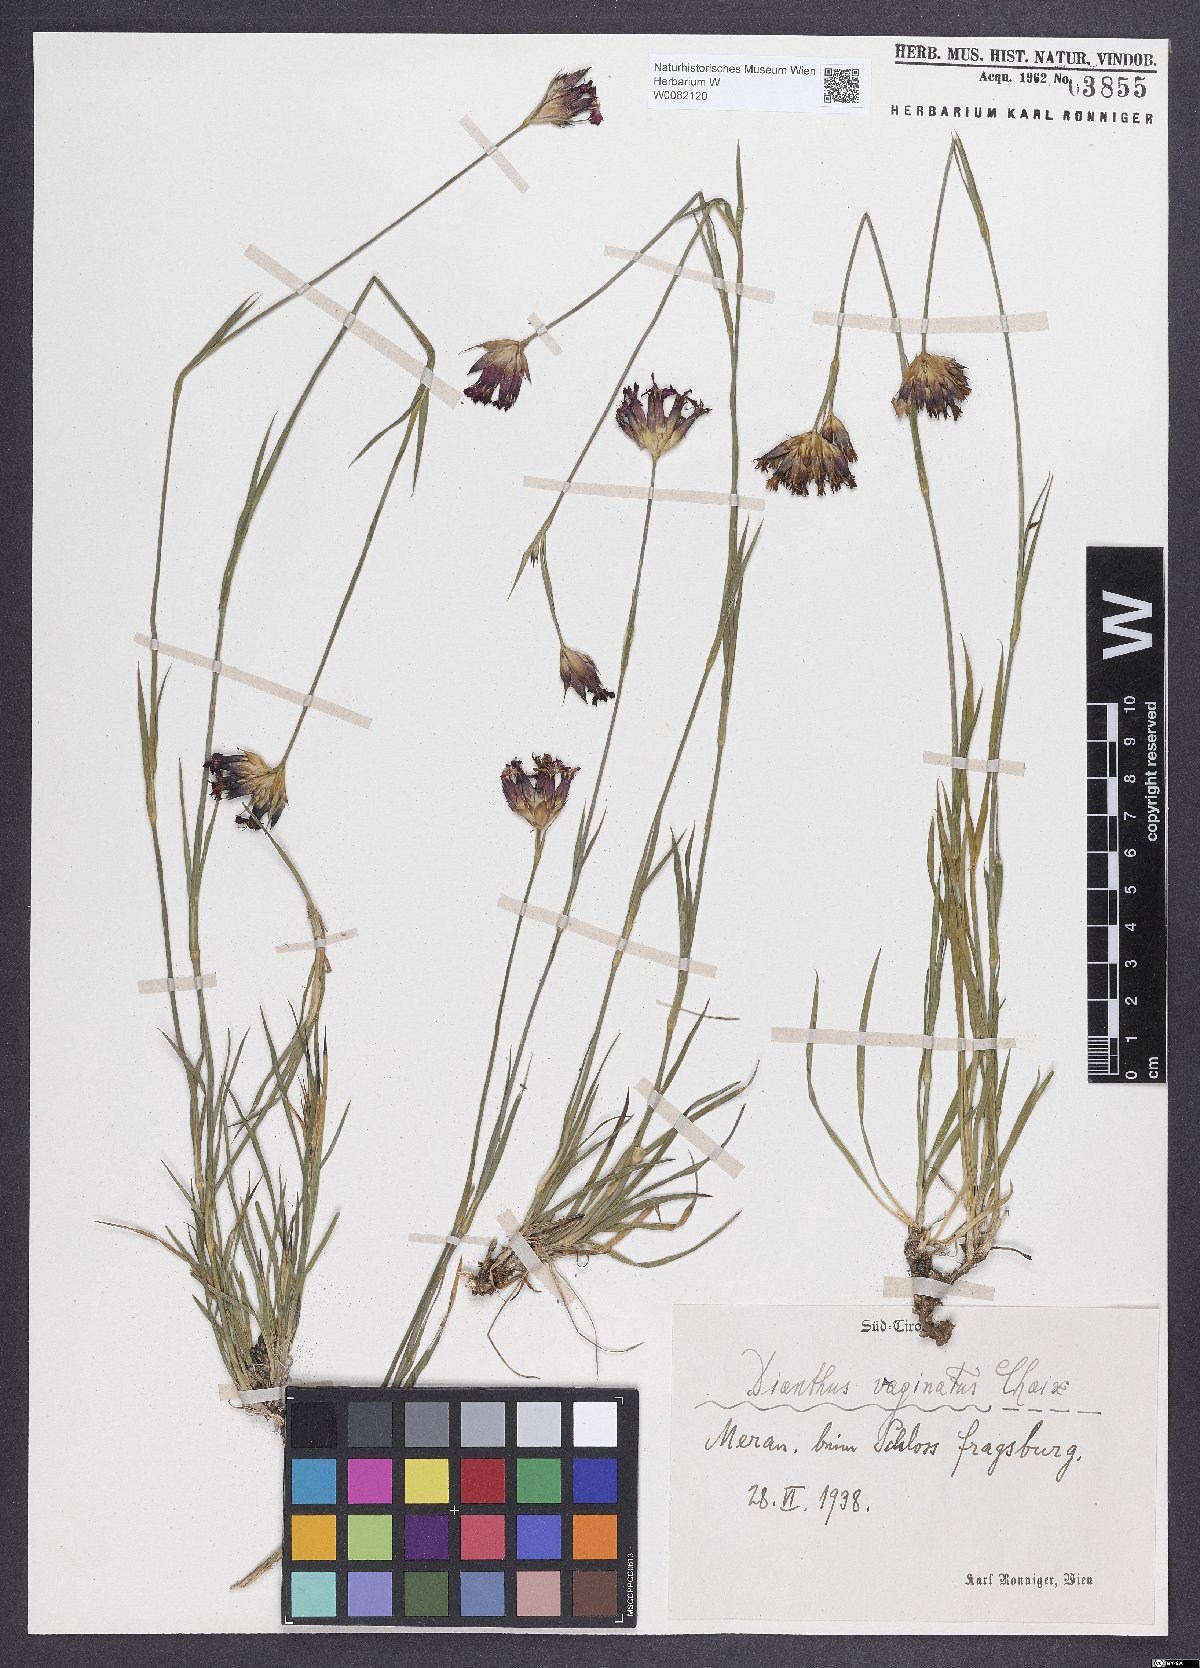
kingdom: Plantae
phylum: Tracheophyta
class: Magnoliopsida
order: Caryophyllales
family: Caryophyllaceae
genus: Dianthus
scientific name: Dianthus carthusianorum
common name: Carthusian pink
